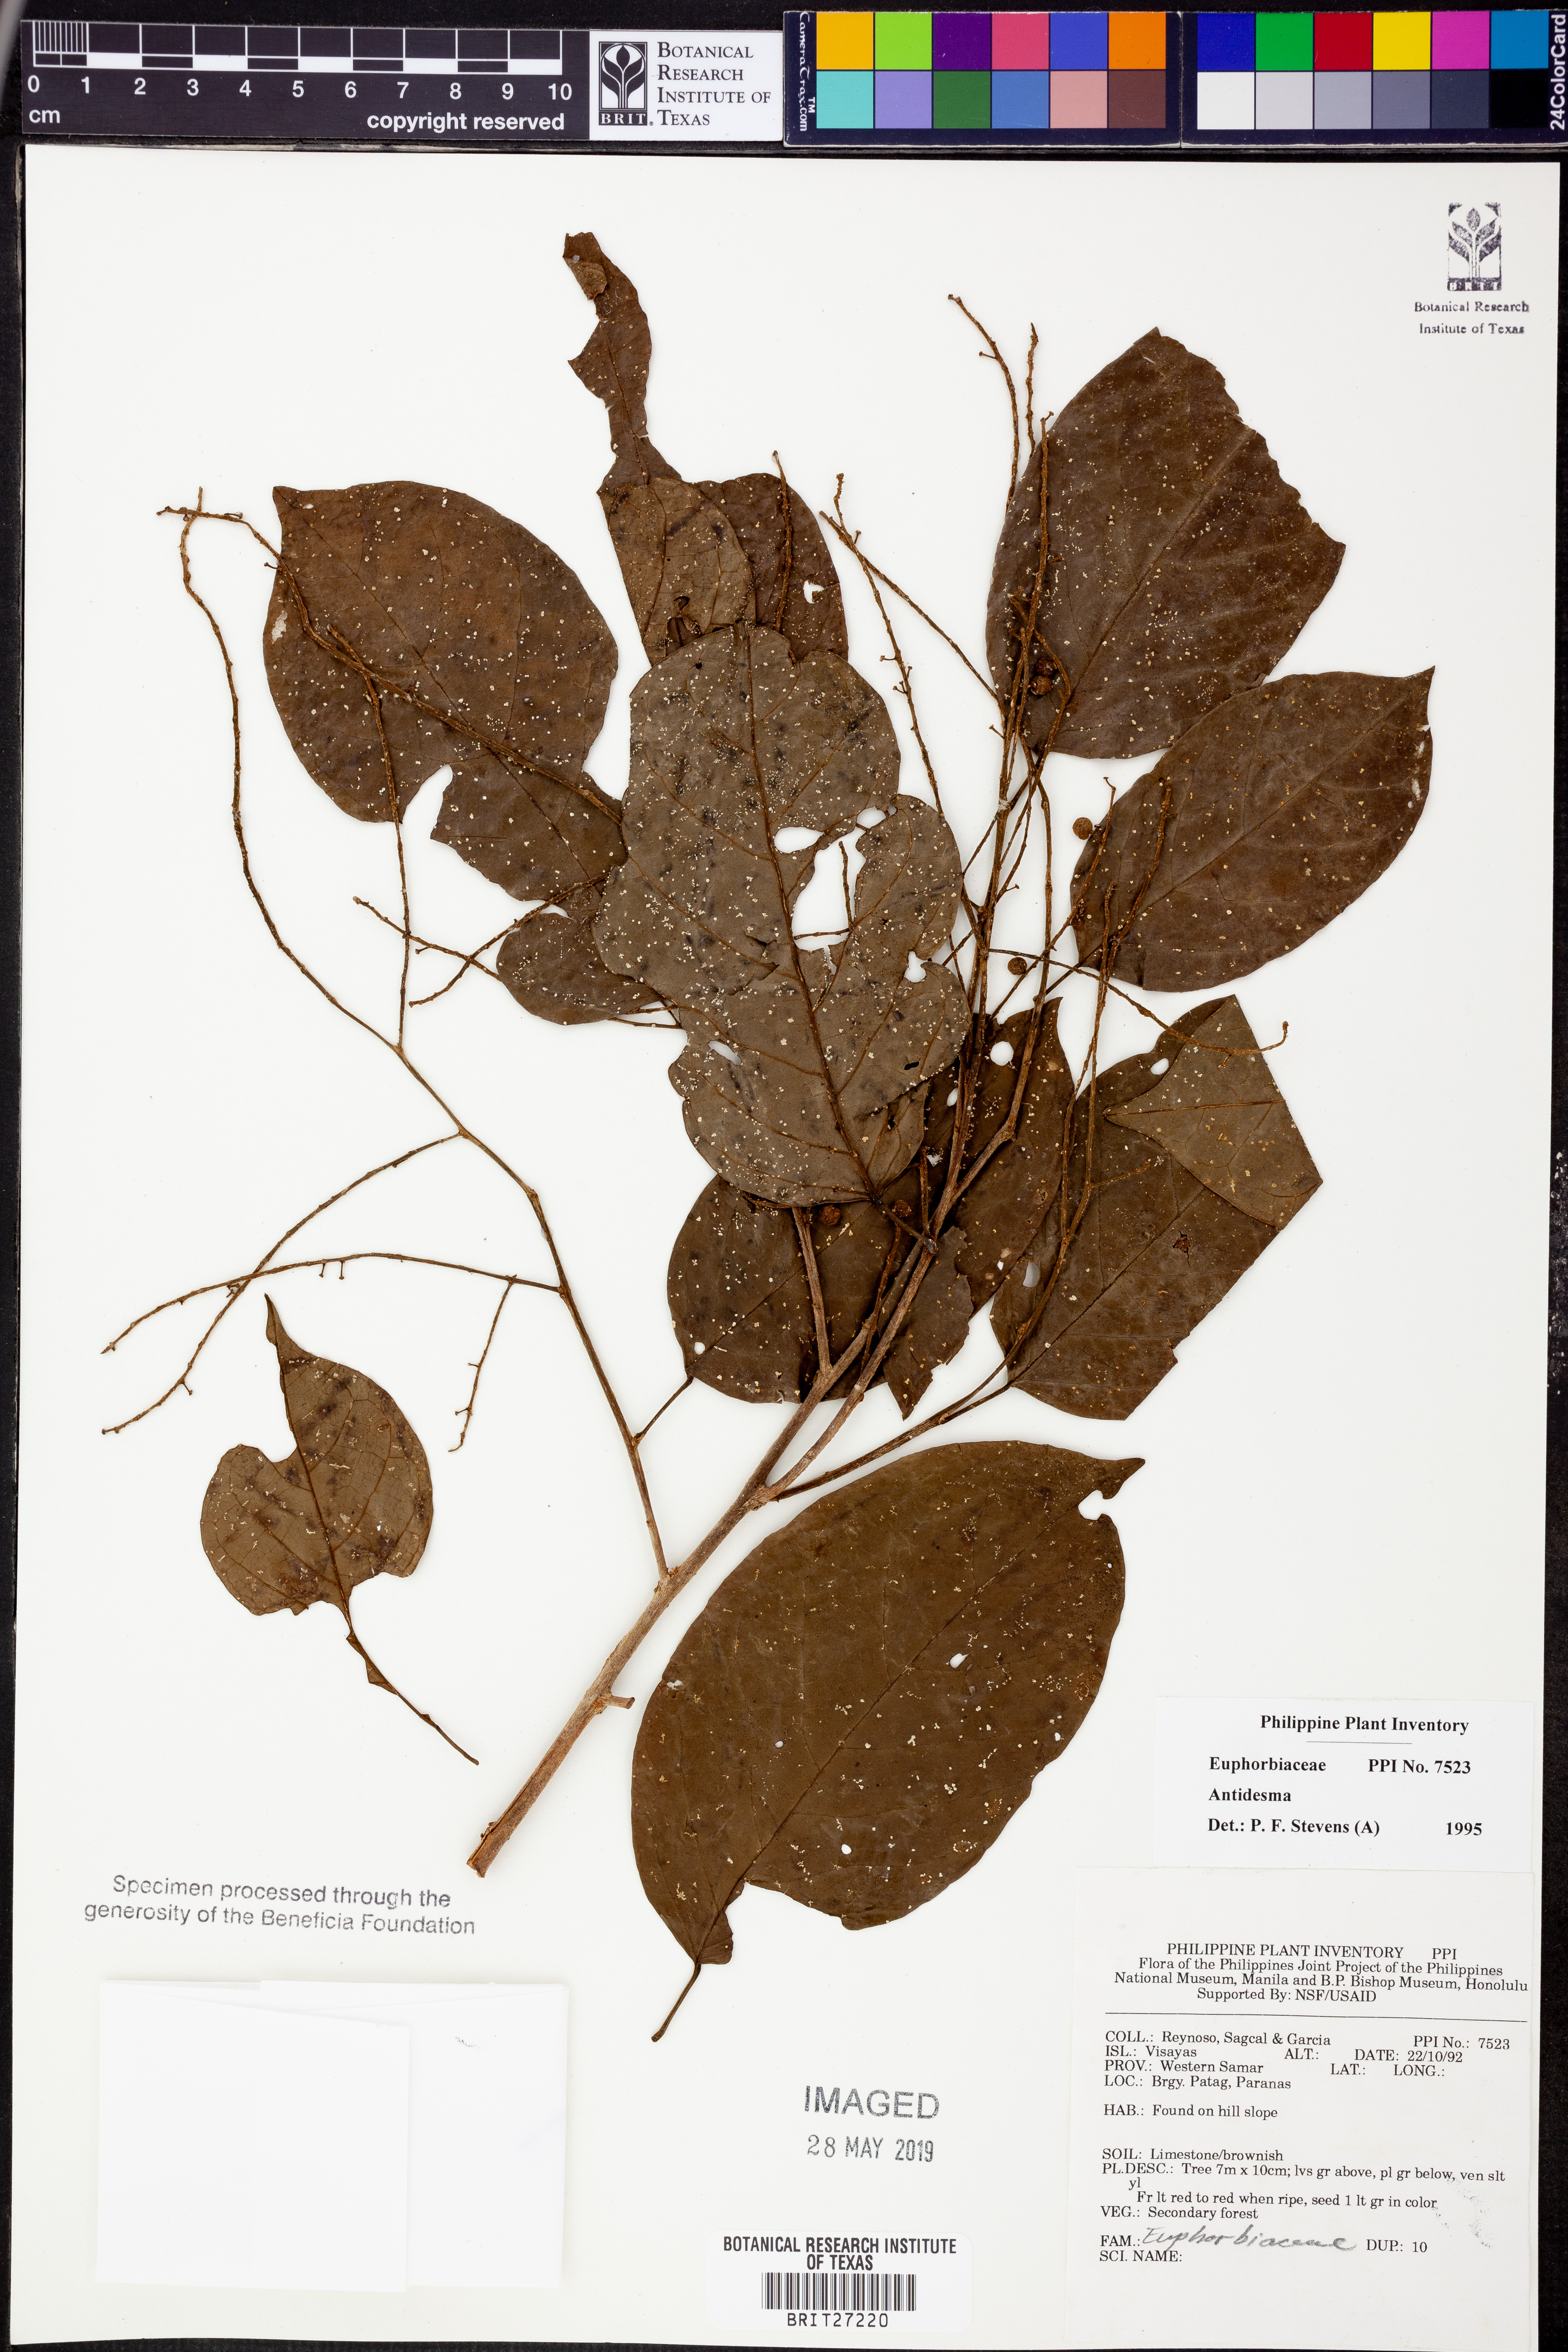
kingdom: Plantae
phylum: Tracheophyta
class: Magnoliopsida
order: Malpighiales
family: Phyllanthaceae
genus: Antidesma
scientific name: Antidesma
